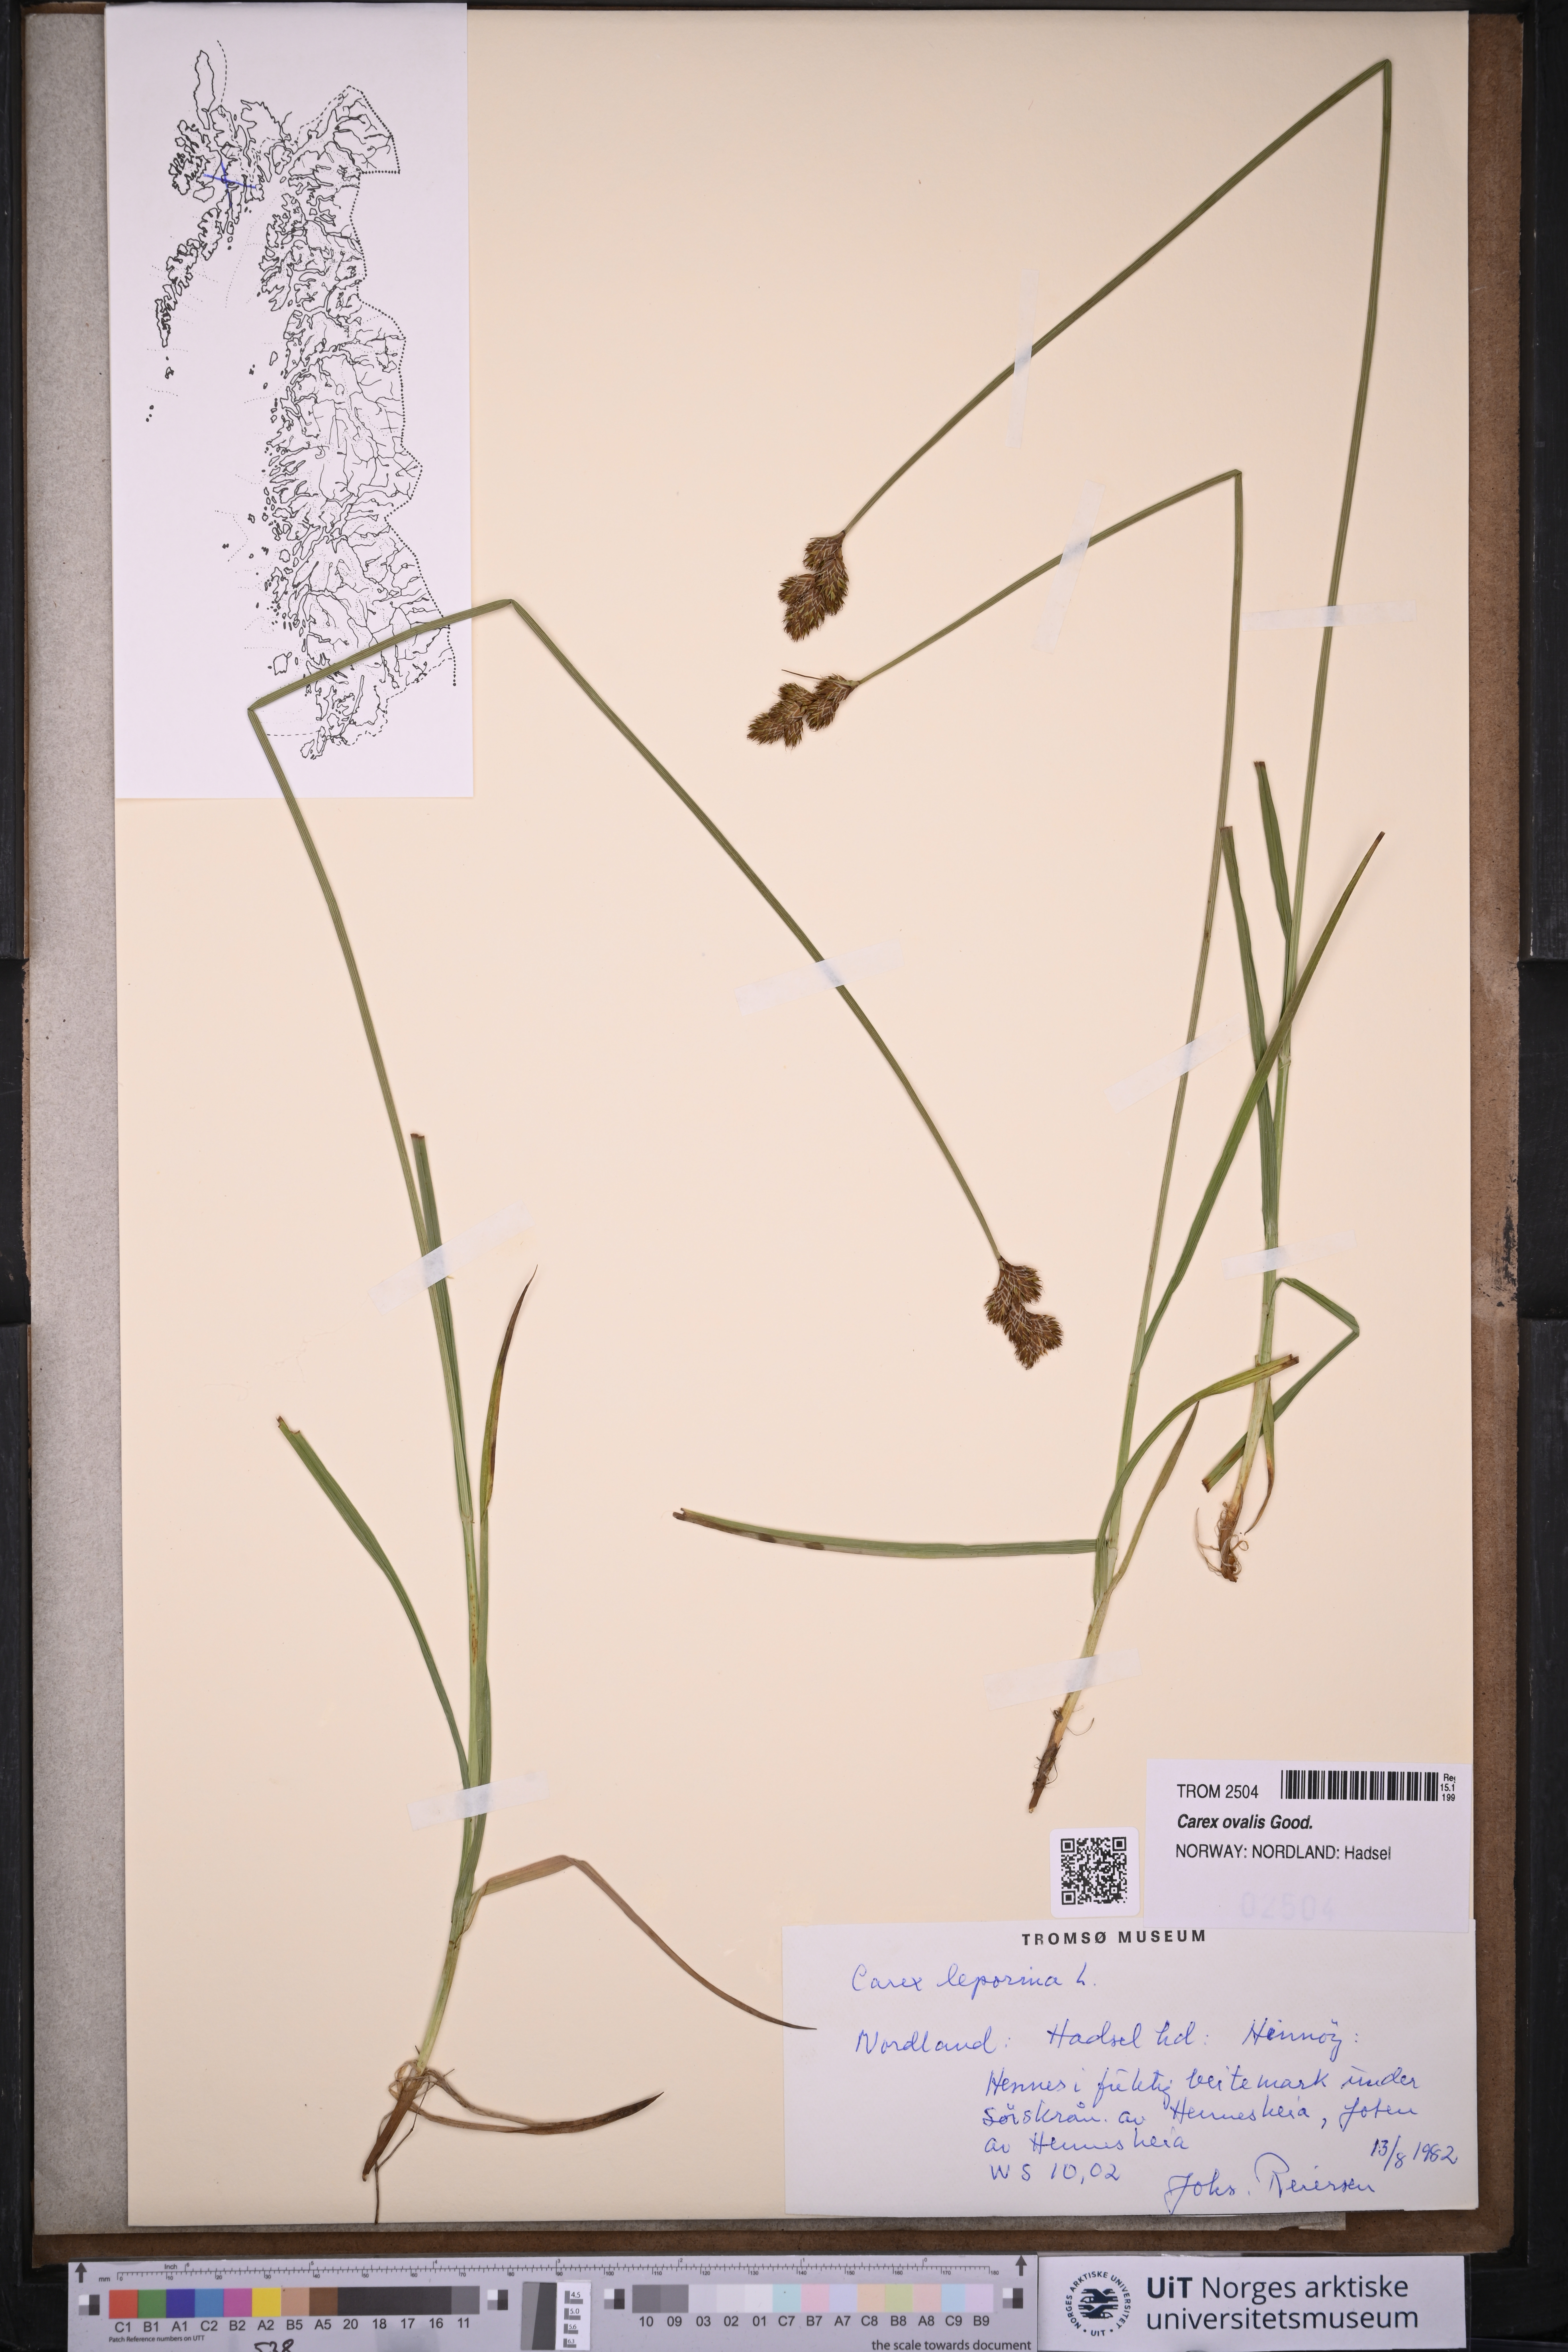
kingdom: Plantae
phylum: Tracheophyta
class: Liliopsida
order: Poales
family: Cyperaceae
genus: Carex
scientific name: Carex leporina
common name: Oval sedge
